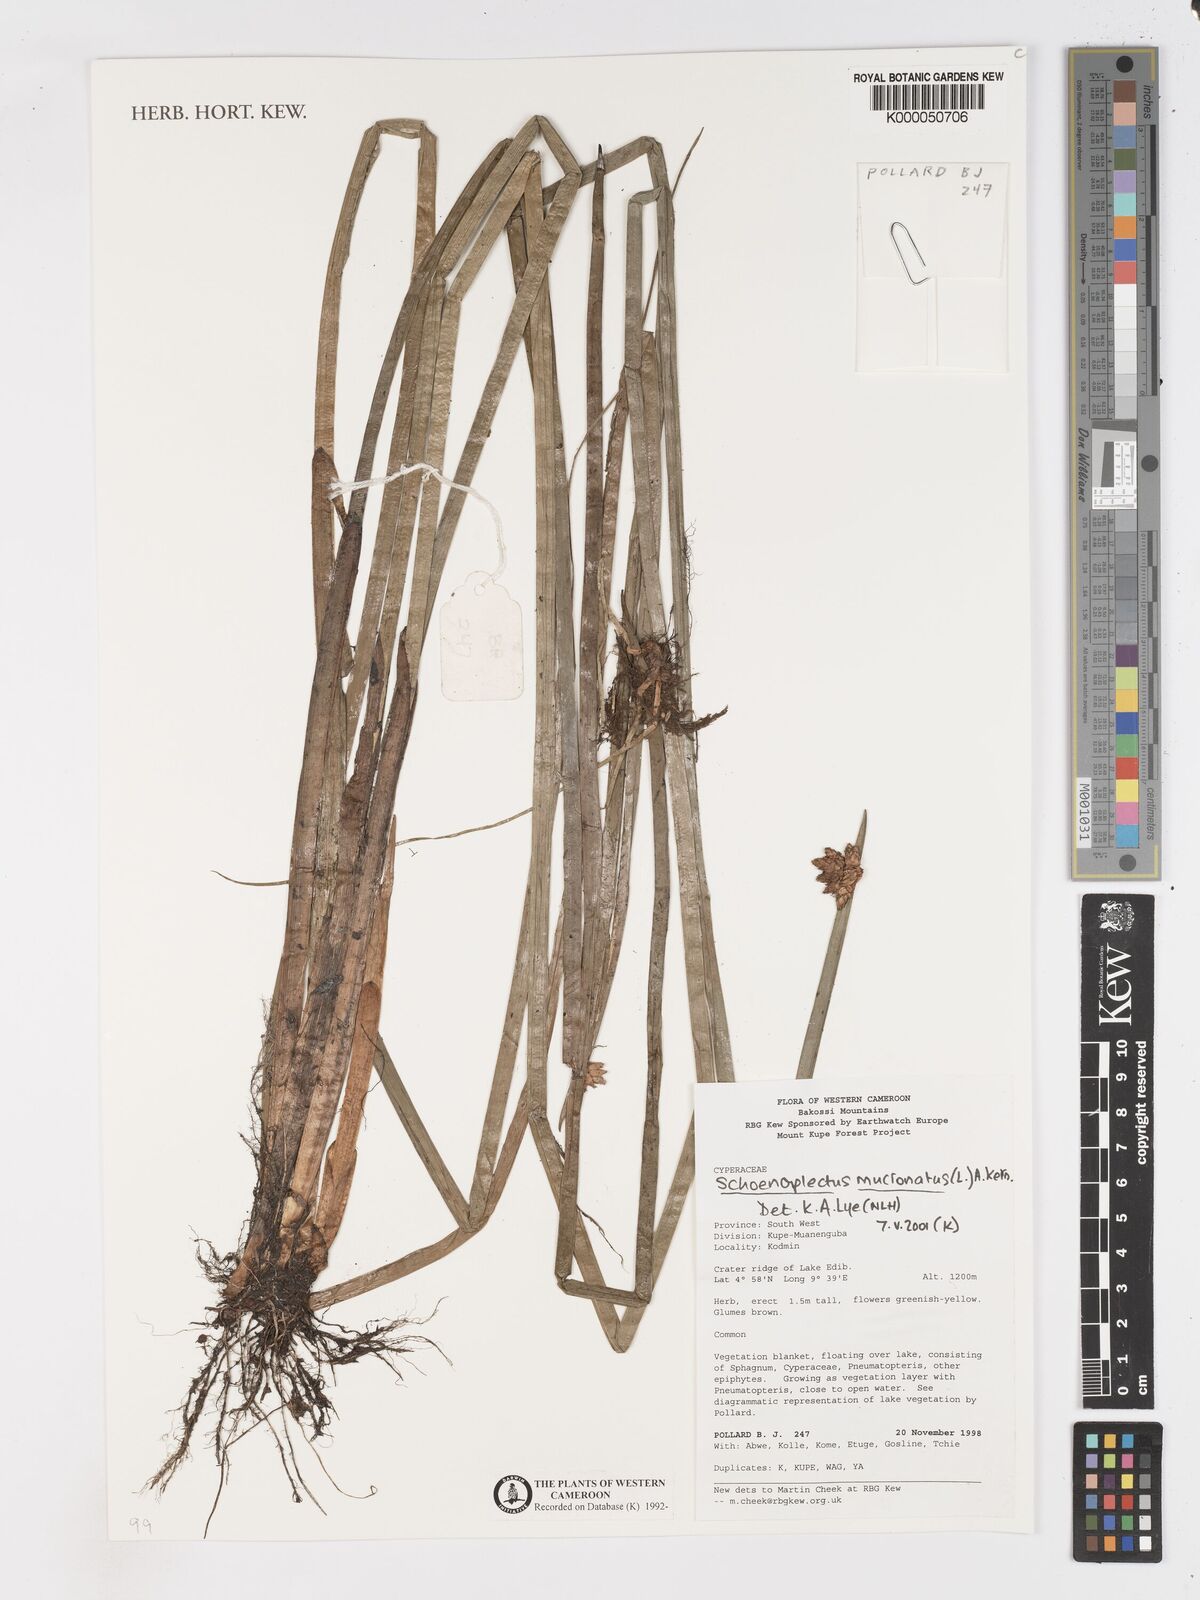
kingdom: Plantae
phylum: Tracheophyta
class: Liliopsida
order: Poales
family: Cyperaceae
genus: Schoenoplectus
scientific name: Schoenoplectus
